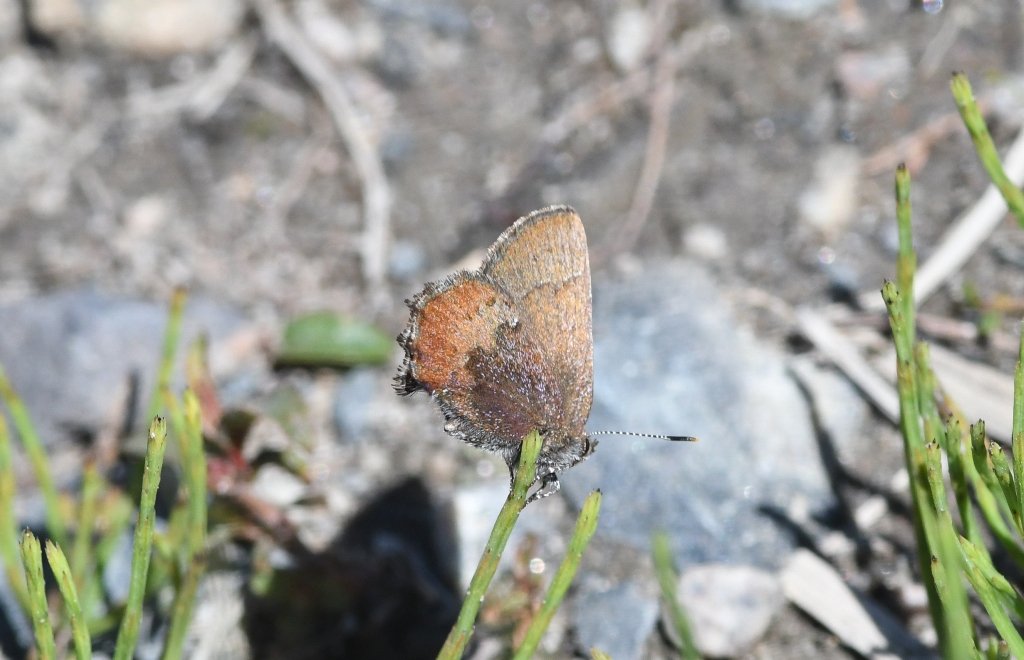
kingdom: Animalia
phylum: Arthropoda
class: Insecta
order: Lepidoptera
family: Lycaenidae
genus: Incisalia
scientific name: Incisalia irioides
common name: Brown Elfin
